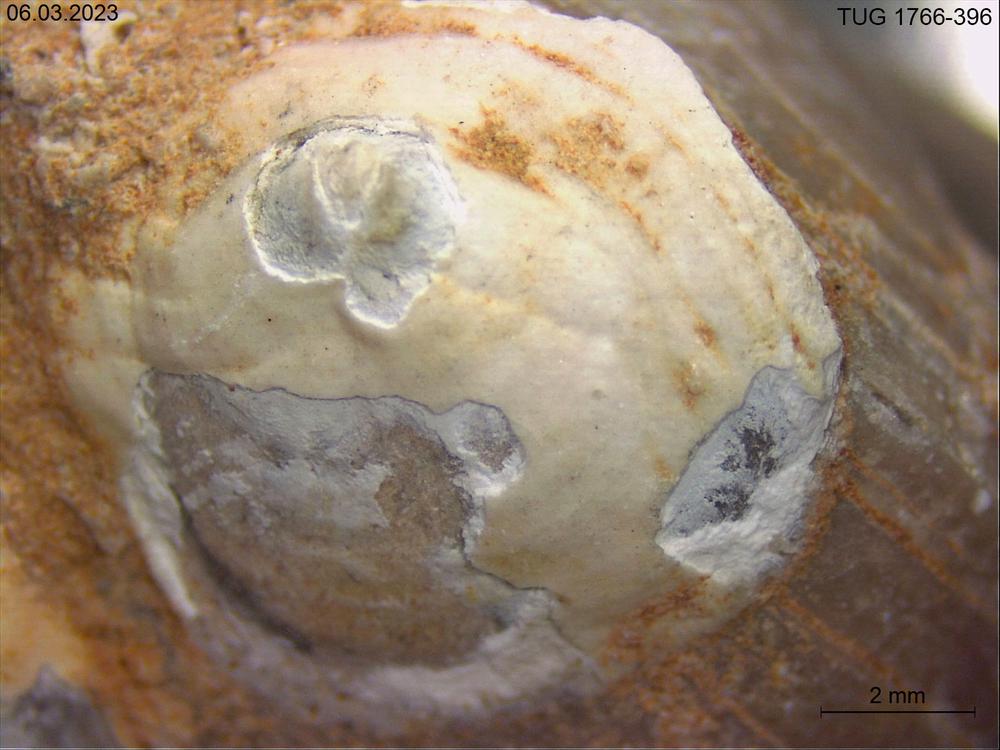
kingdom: Animalia
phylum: Brachiopoda
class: Craniata
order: Craniida
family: Craniidae
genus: Philhedra
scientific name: Philhedra
